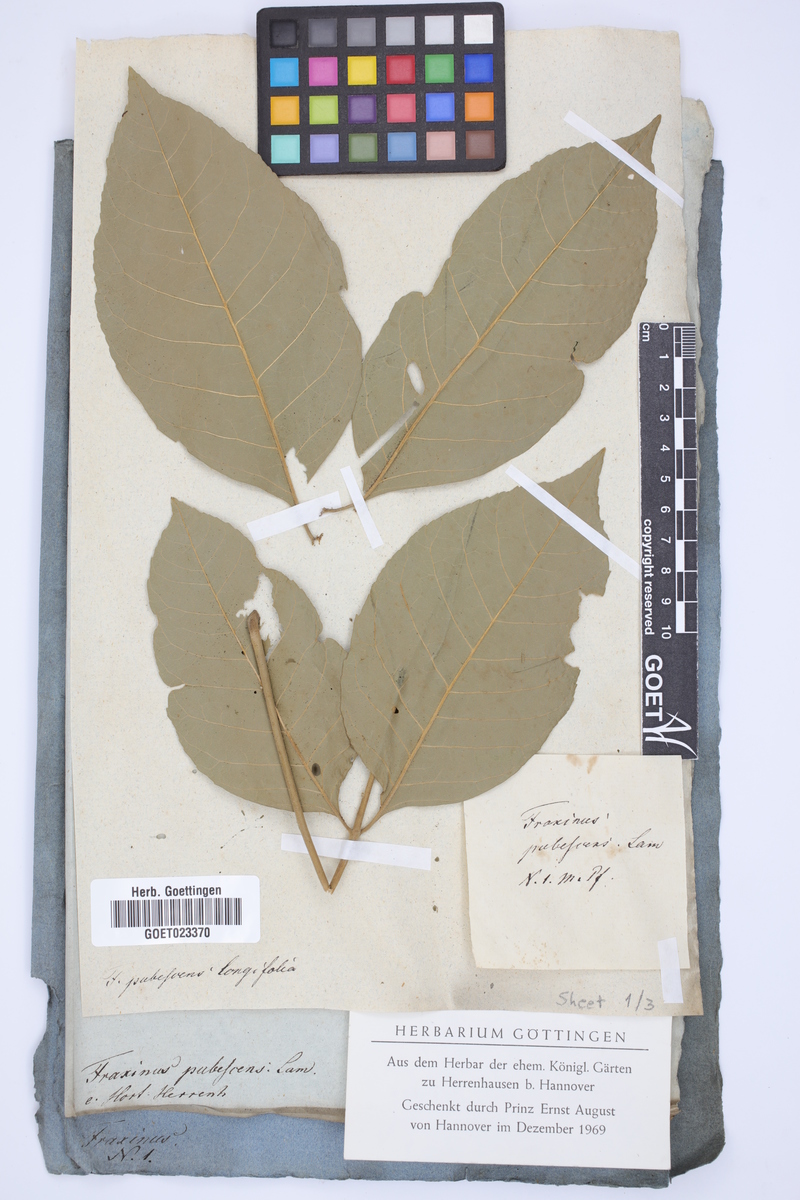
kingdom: Plantae
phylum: Tracheophyta
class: Magnoliopsida
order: Lamiales
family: Oleaceae
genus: Fraxinus
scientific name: Fraxinus pennsylvanica
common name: Green ash
